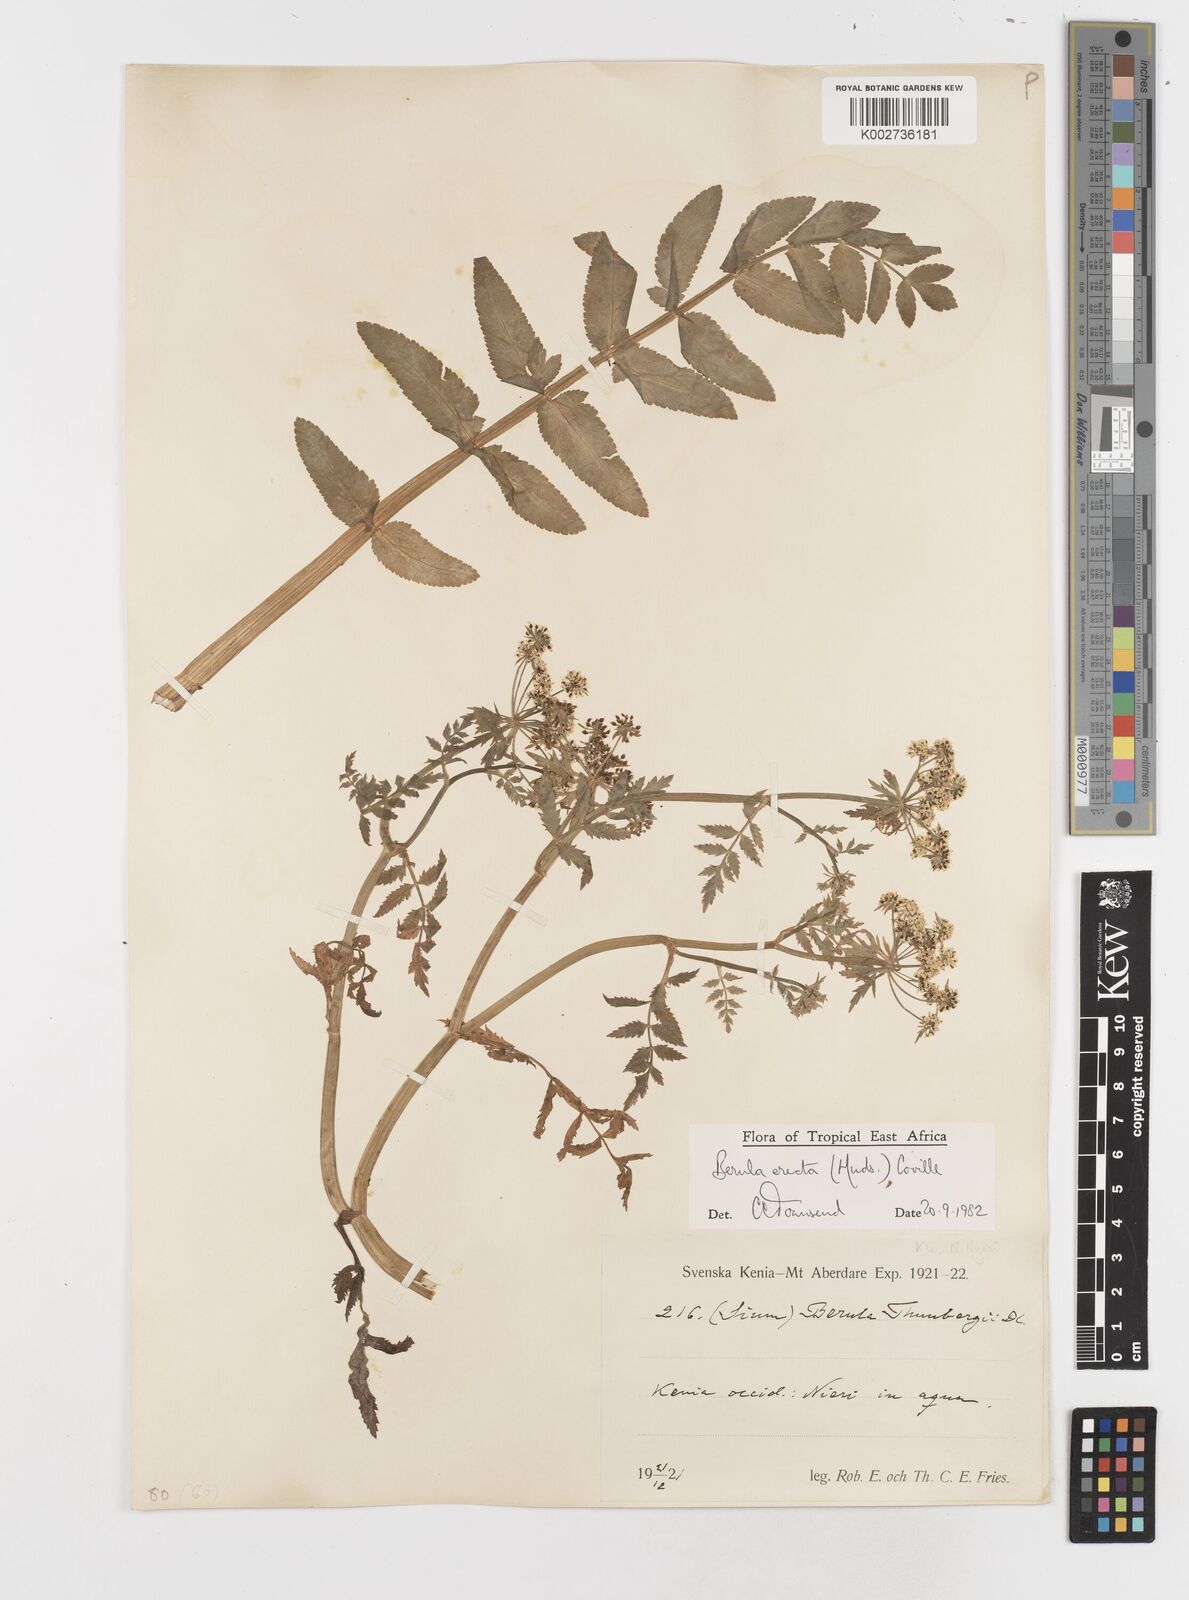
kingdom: Plantae
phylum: Tracheophyta
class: Magnoliopsida
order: Apiales
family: Apiaceae
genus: Berula
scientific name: Berula erecta
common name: Lesser water-parsnip
